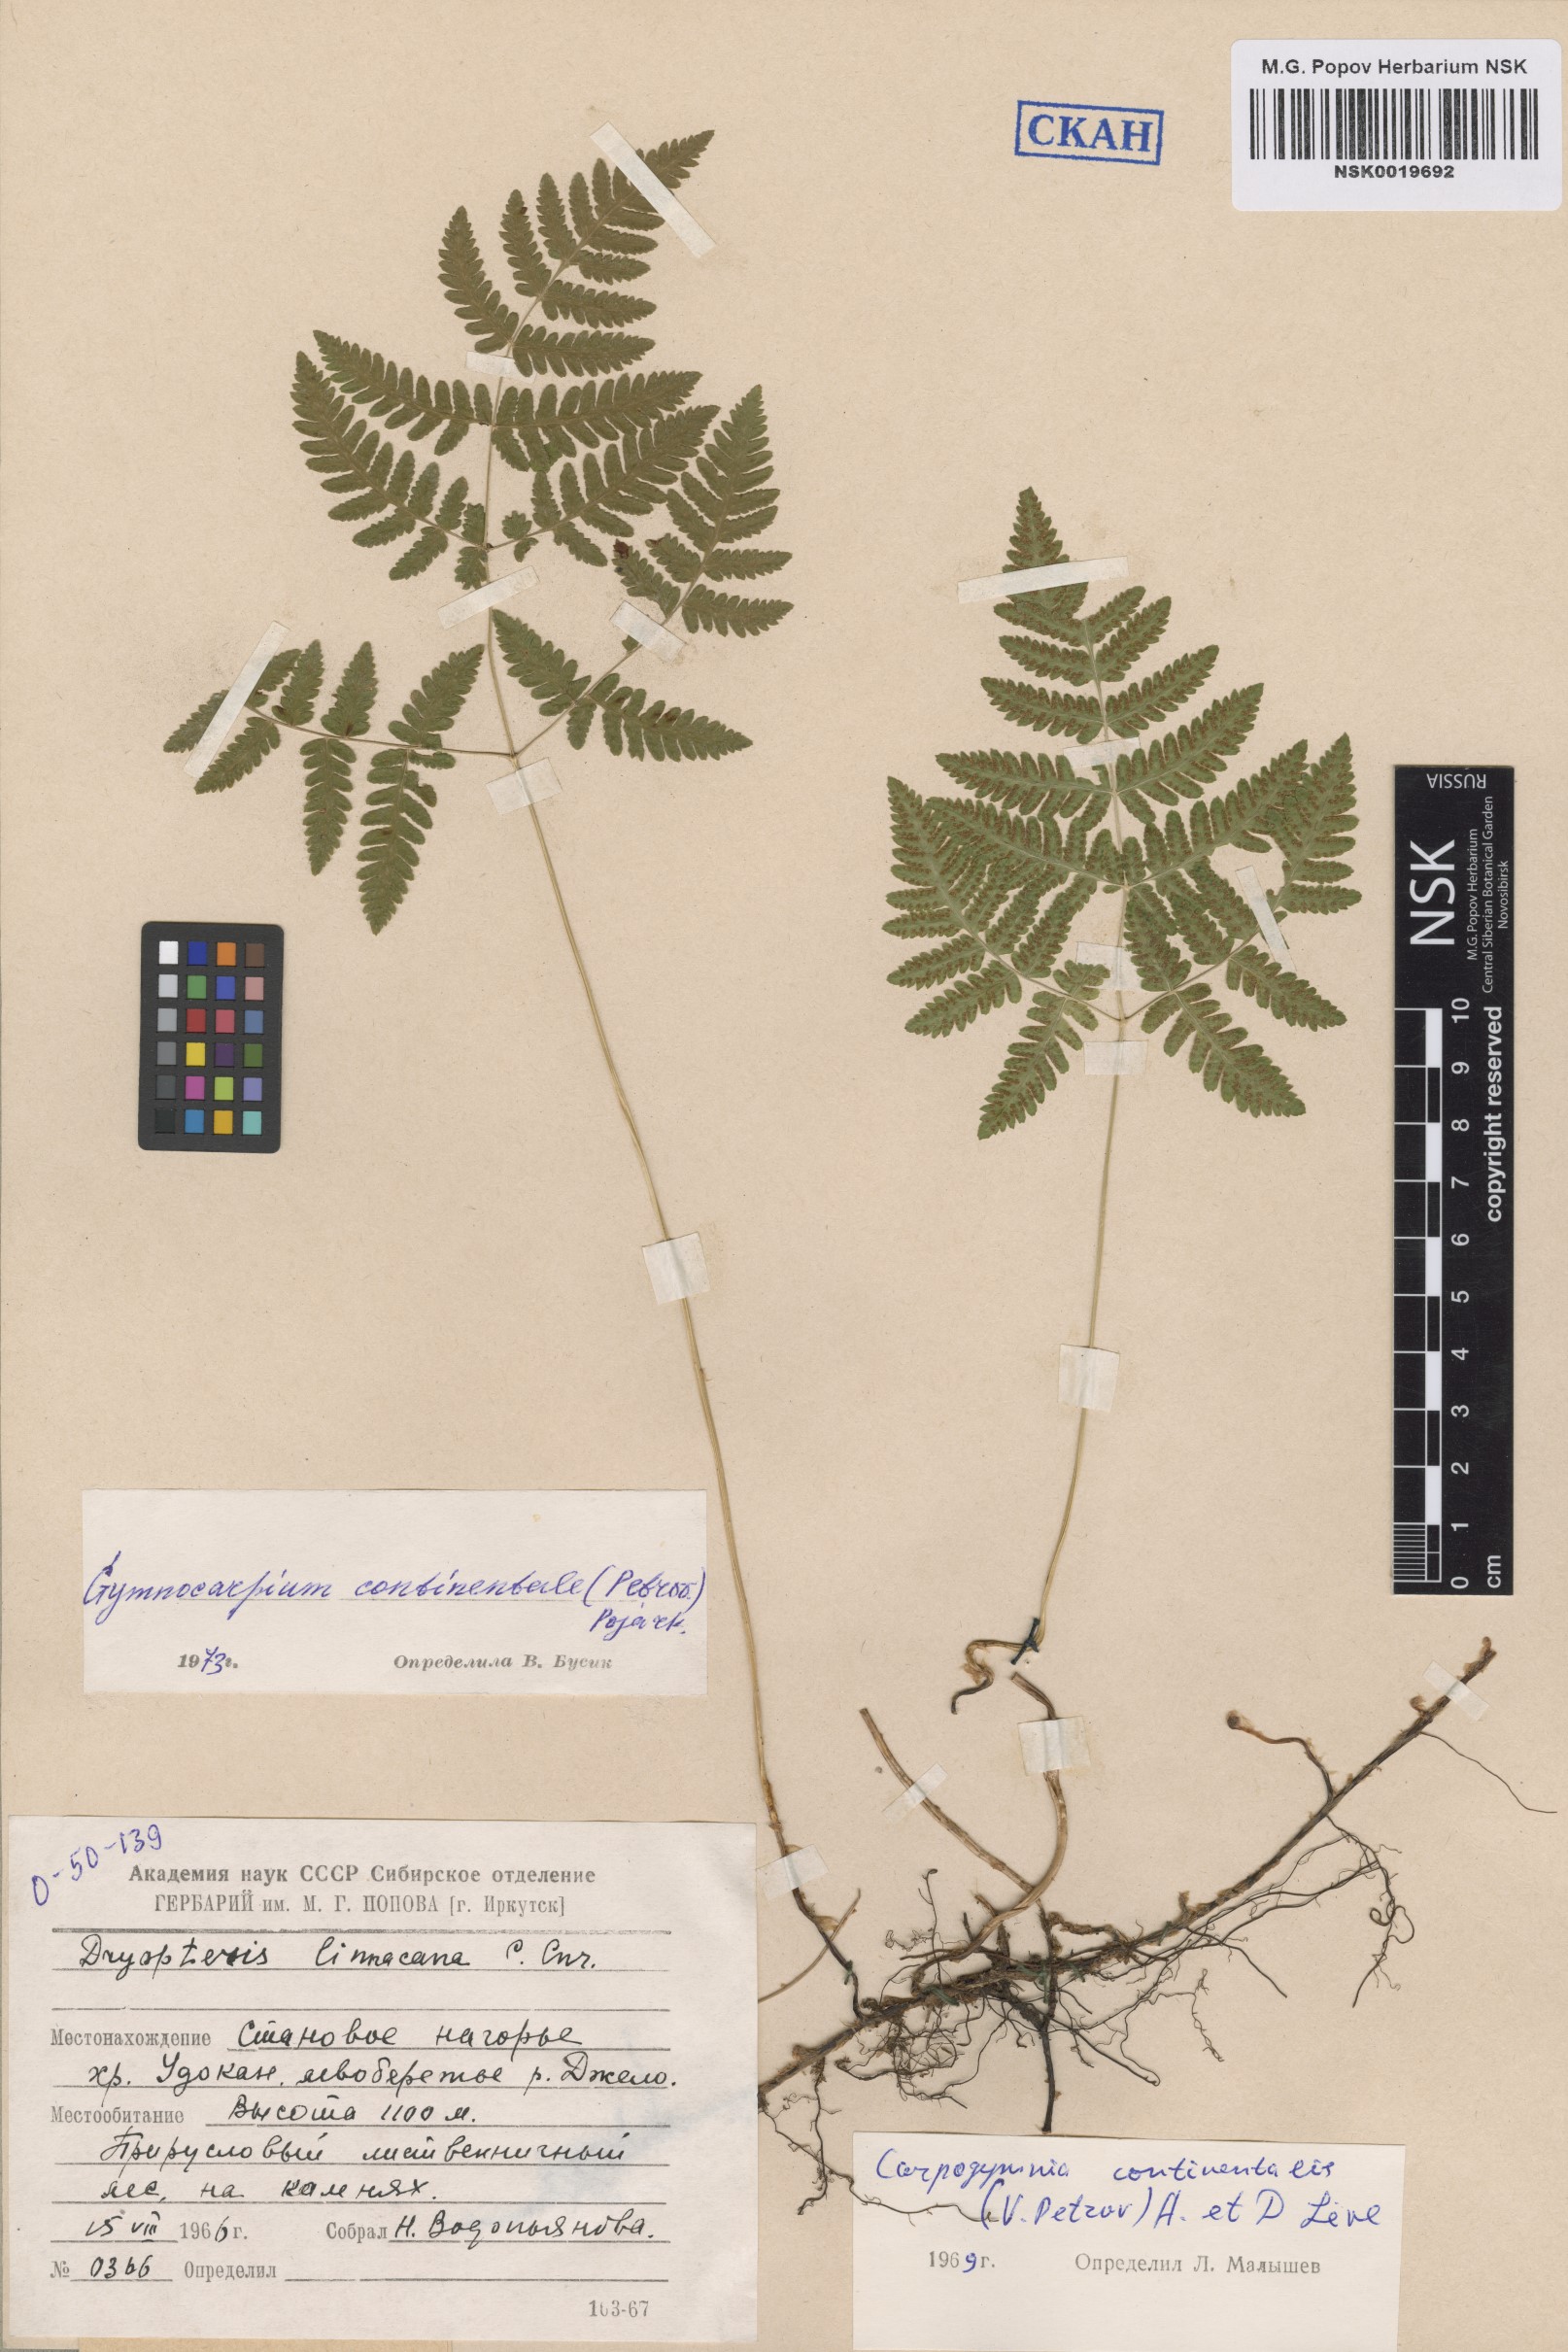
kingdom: Plantae
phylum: Tracheophyta
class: Polypodiopsida
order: Polypodiales
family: Cystopteridaceae
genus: Gymnocarpium
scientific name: Gymnocarpium continentale
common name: Asian oak fern
